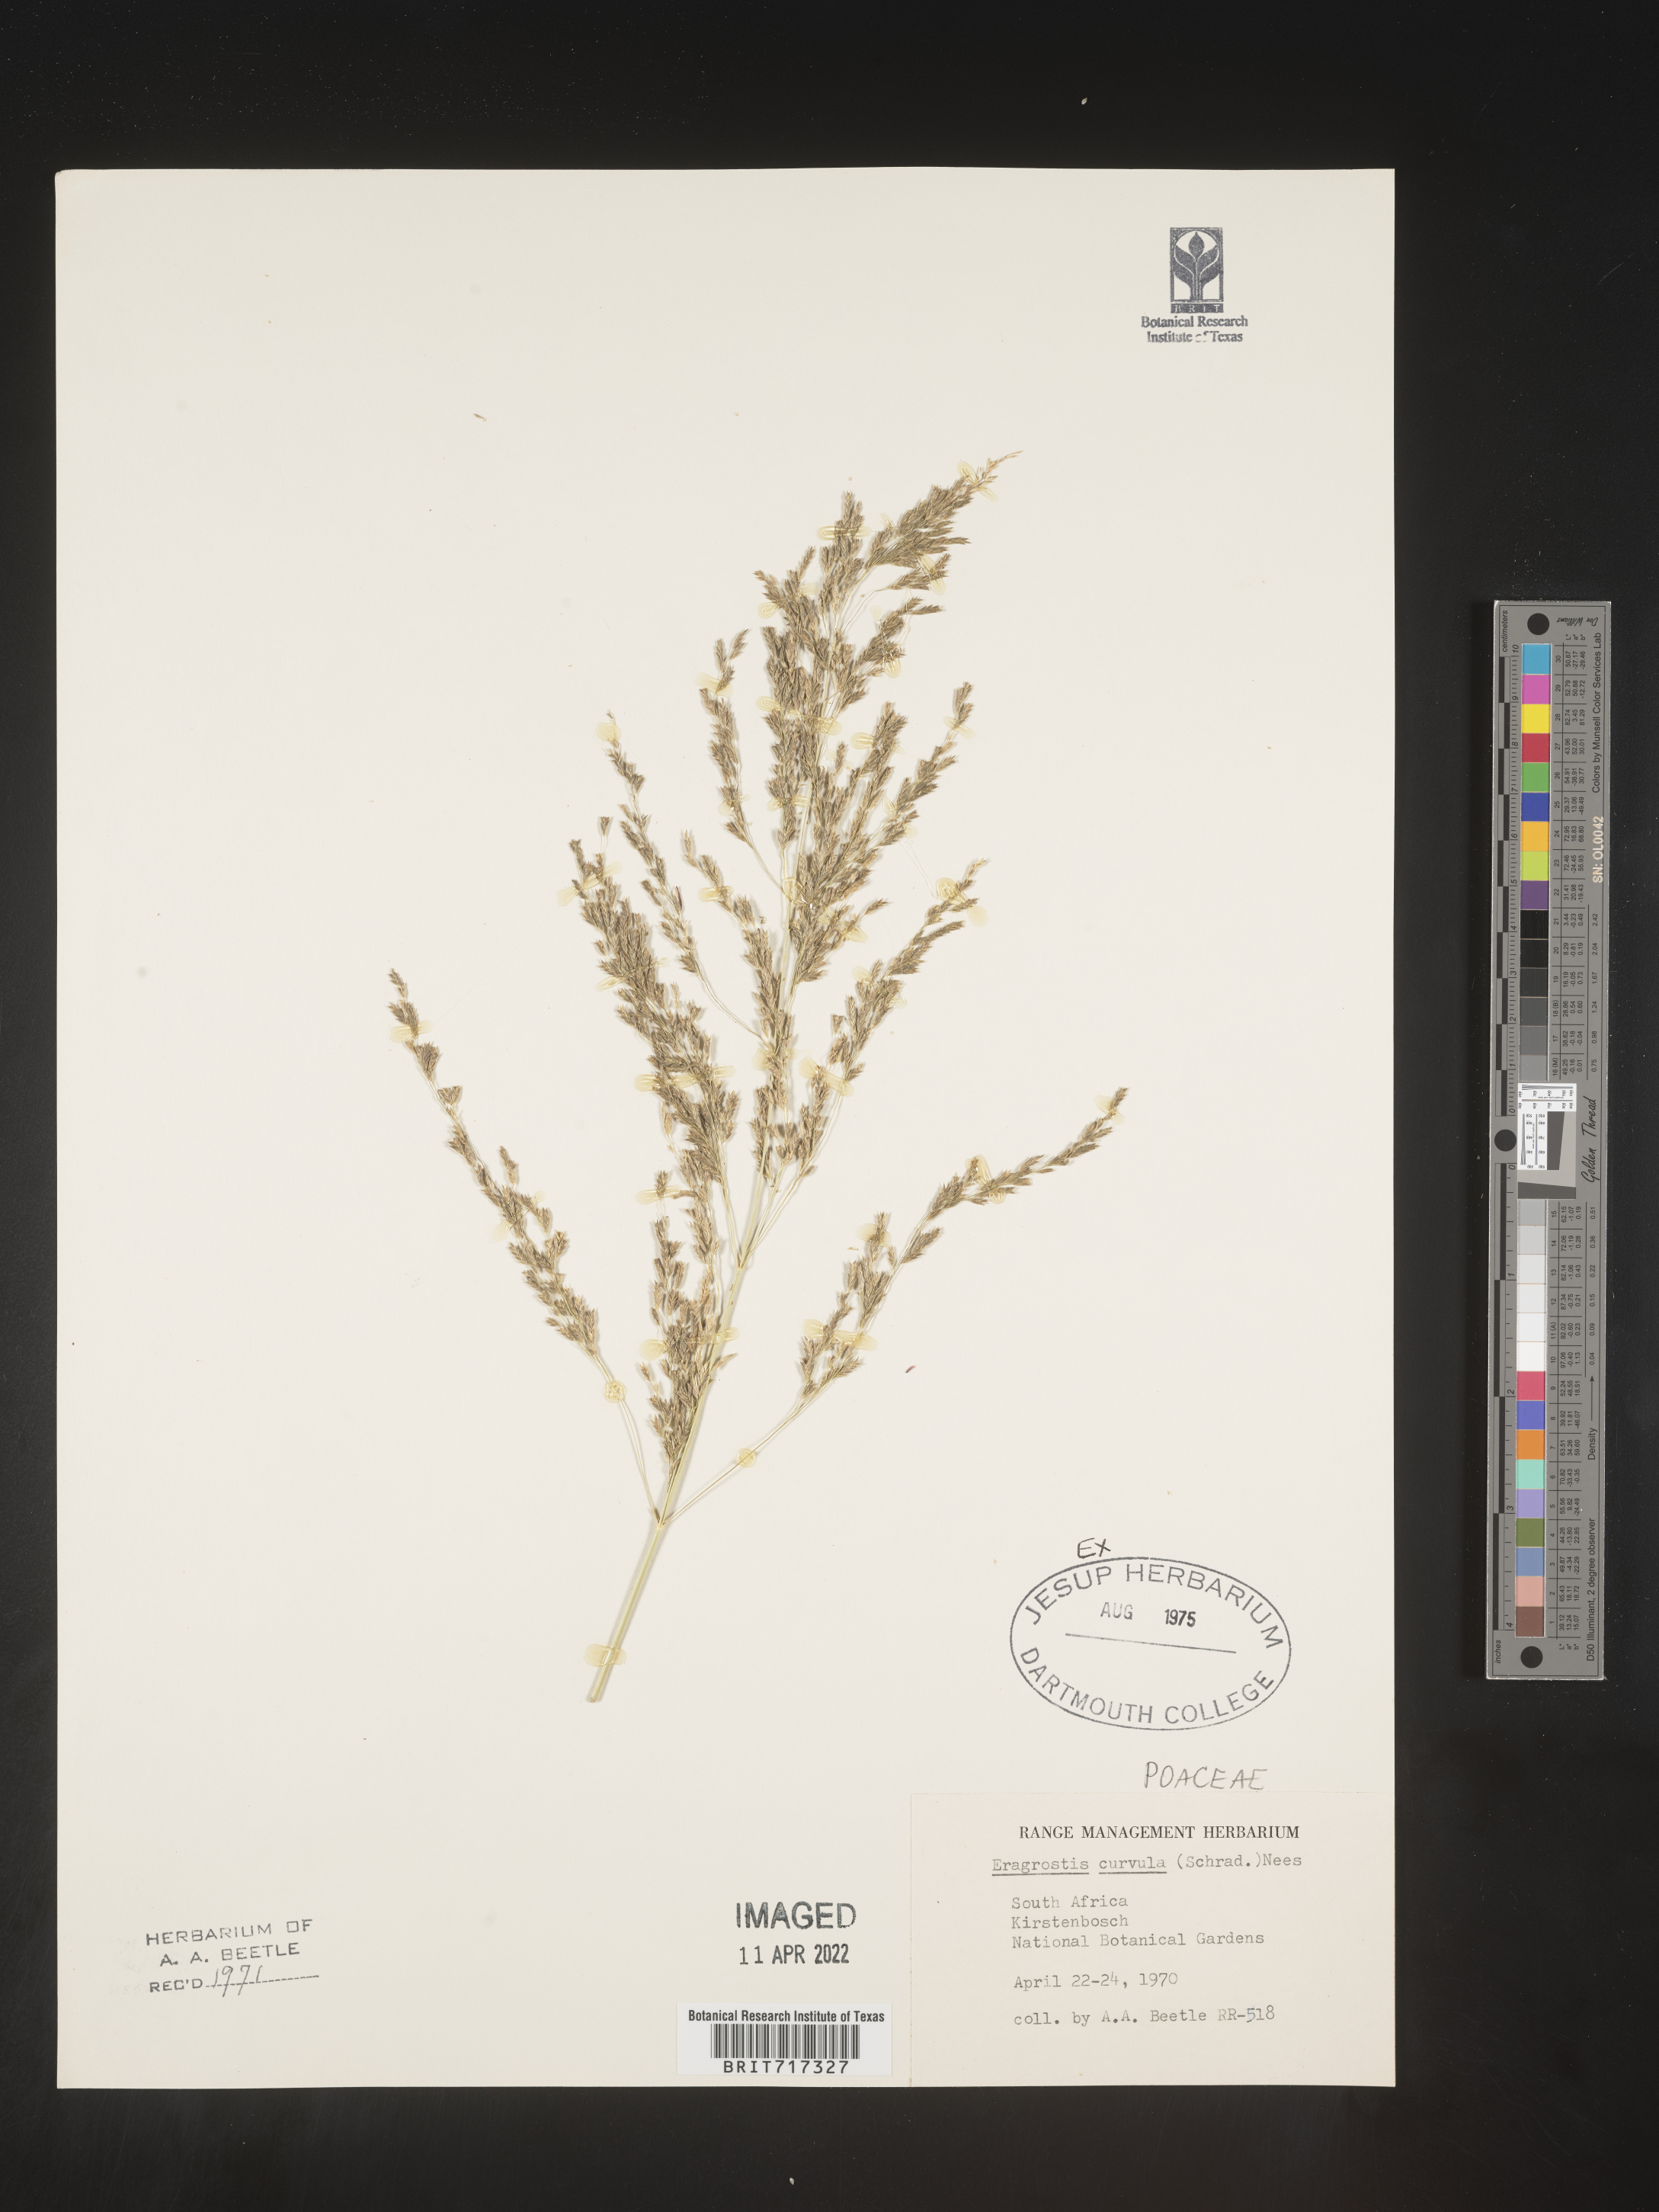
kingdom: Plantae
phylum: Tracheophyta
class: Liliopsida
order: Poales
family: Poaceae
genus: Eragrostis
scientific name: Eragrostis
